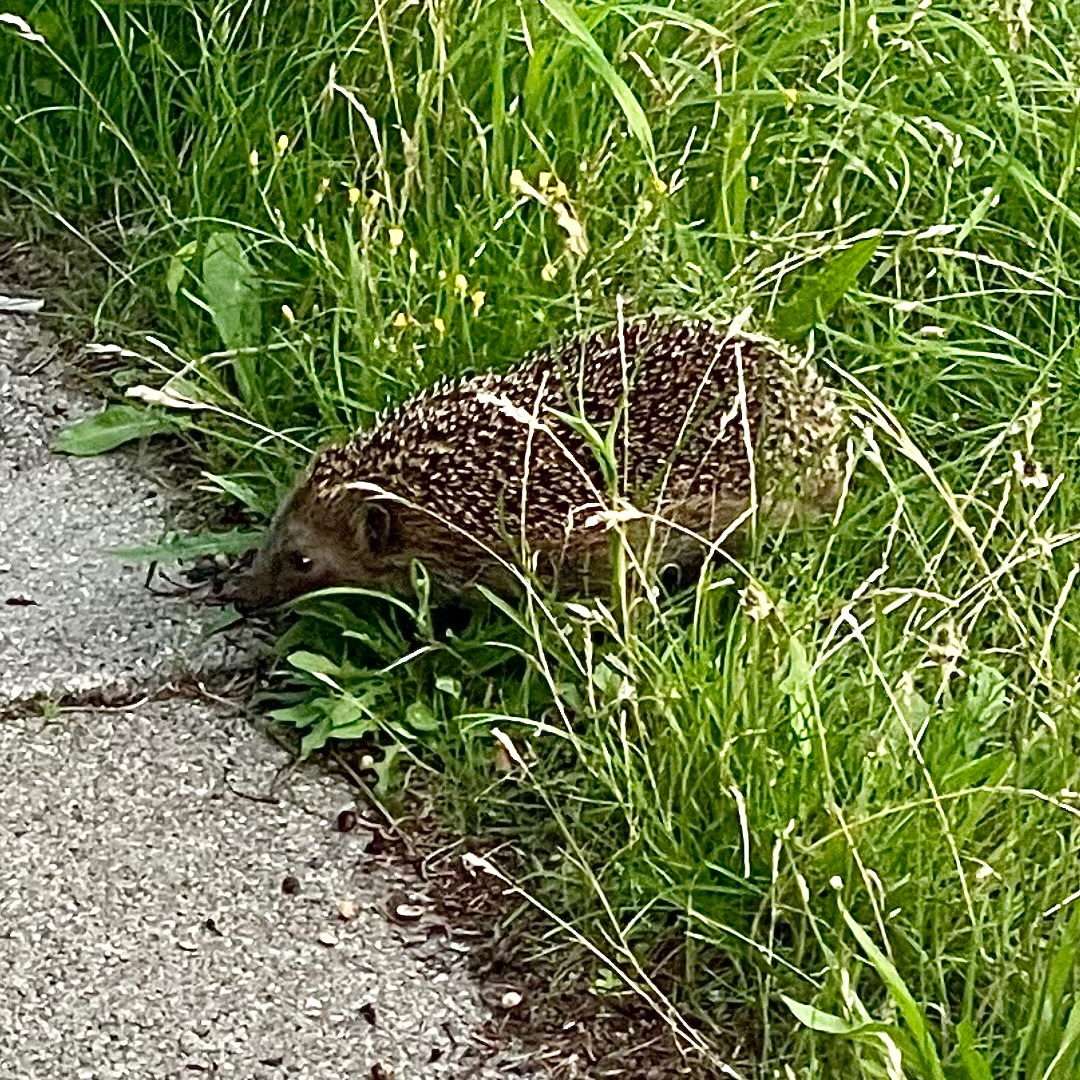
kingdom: Animalia
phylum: Chordata
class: Mammalia
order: Erinaceomorpha
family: Erinaceidae
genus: Erinaceus
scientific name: Erinaceus europaeus
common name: Pindsvin
